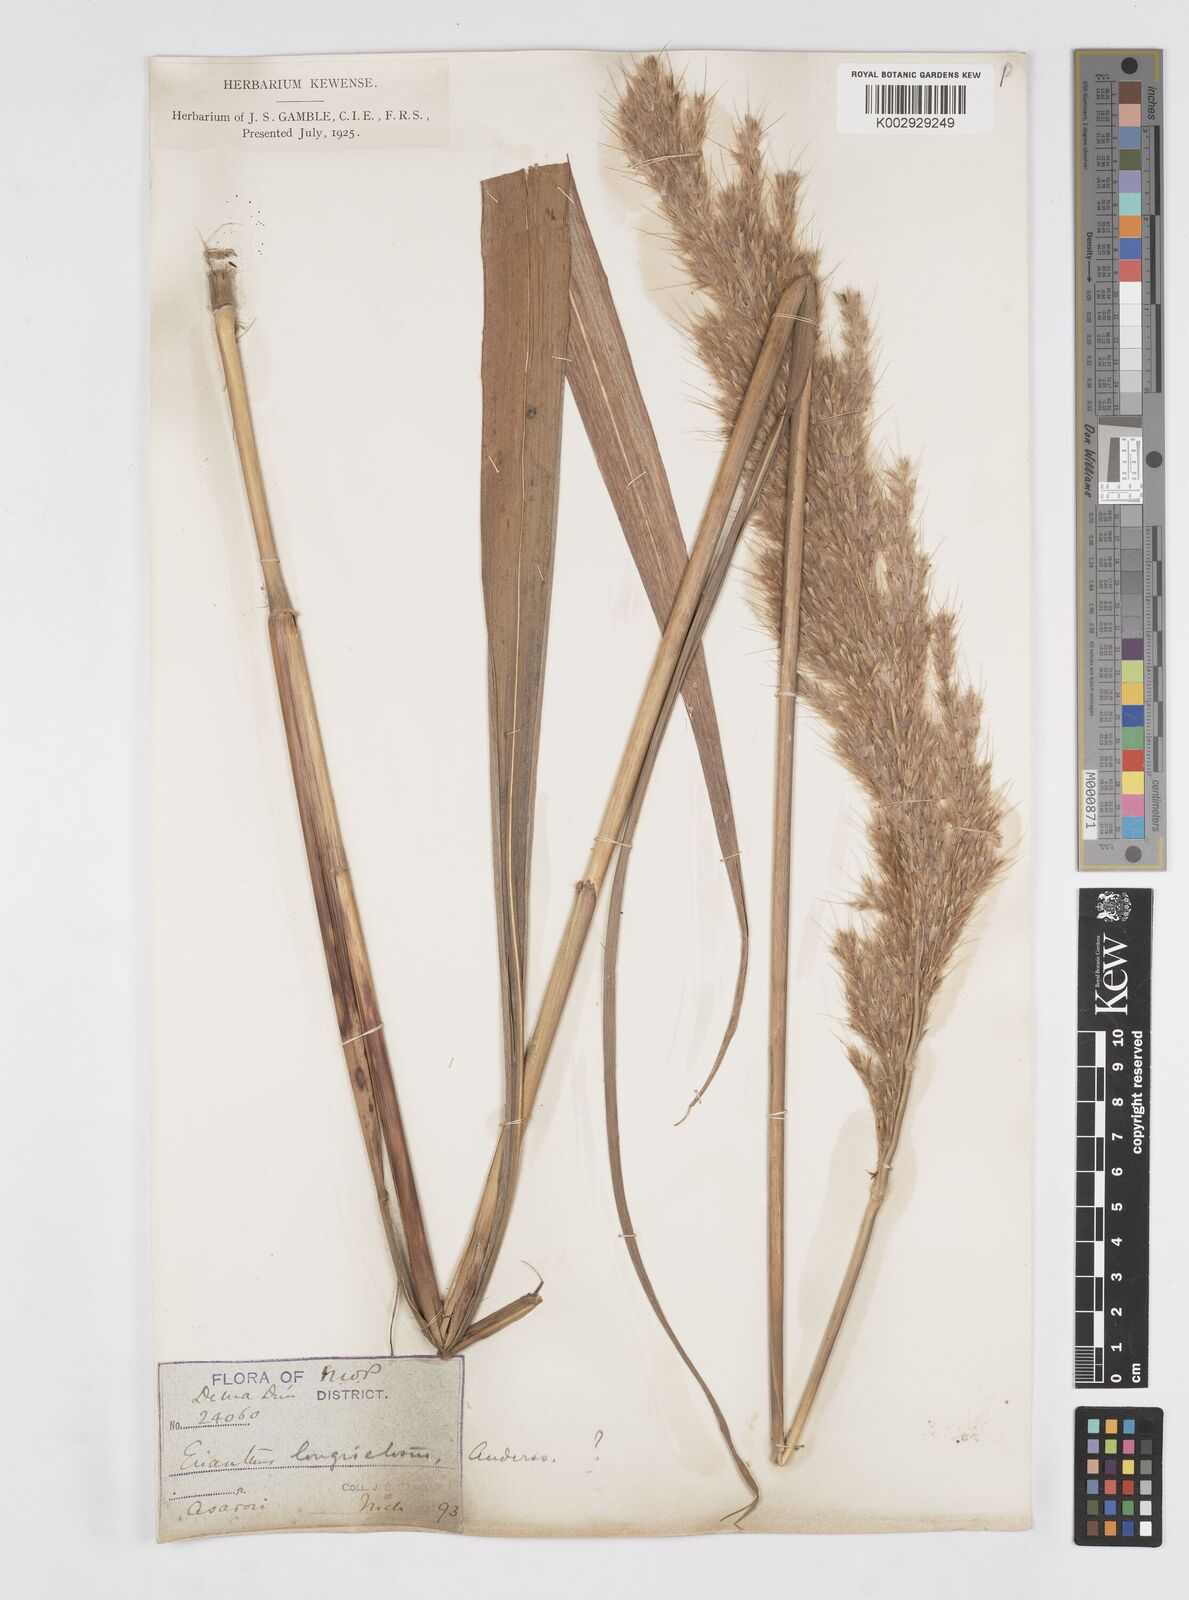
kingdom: Plantae
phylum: Tracheophyta
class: Liliopsida
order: Poales
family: Poaceae
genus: Saccharum
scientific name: Saccharum longesetosum
